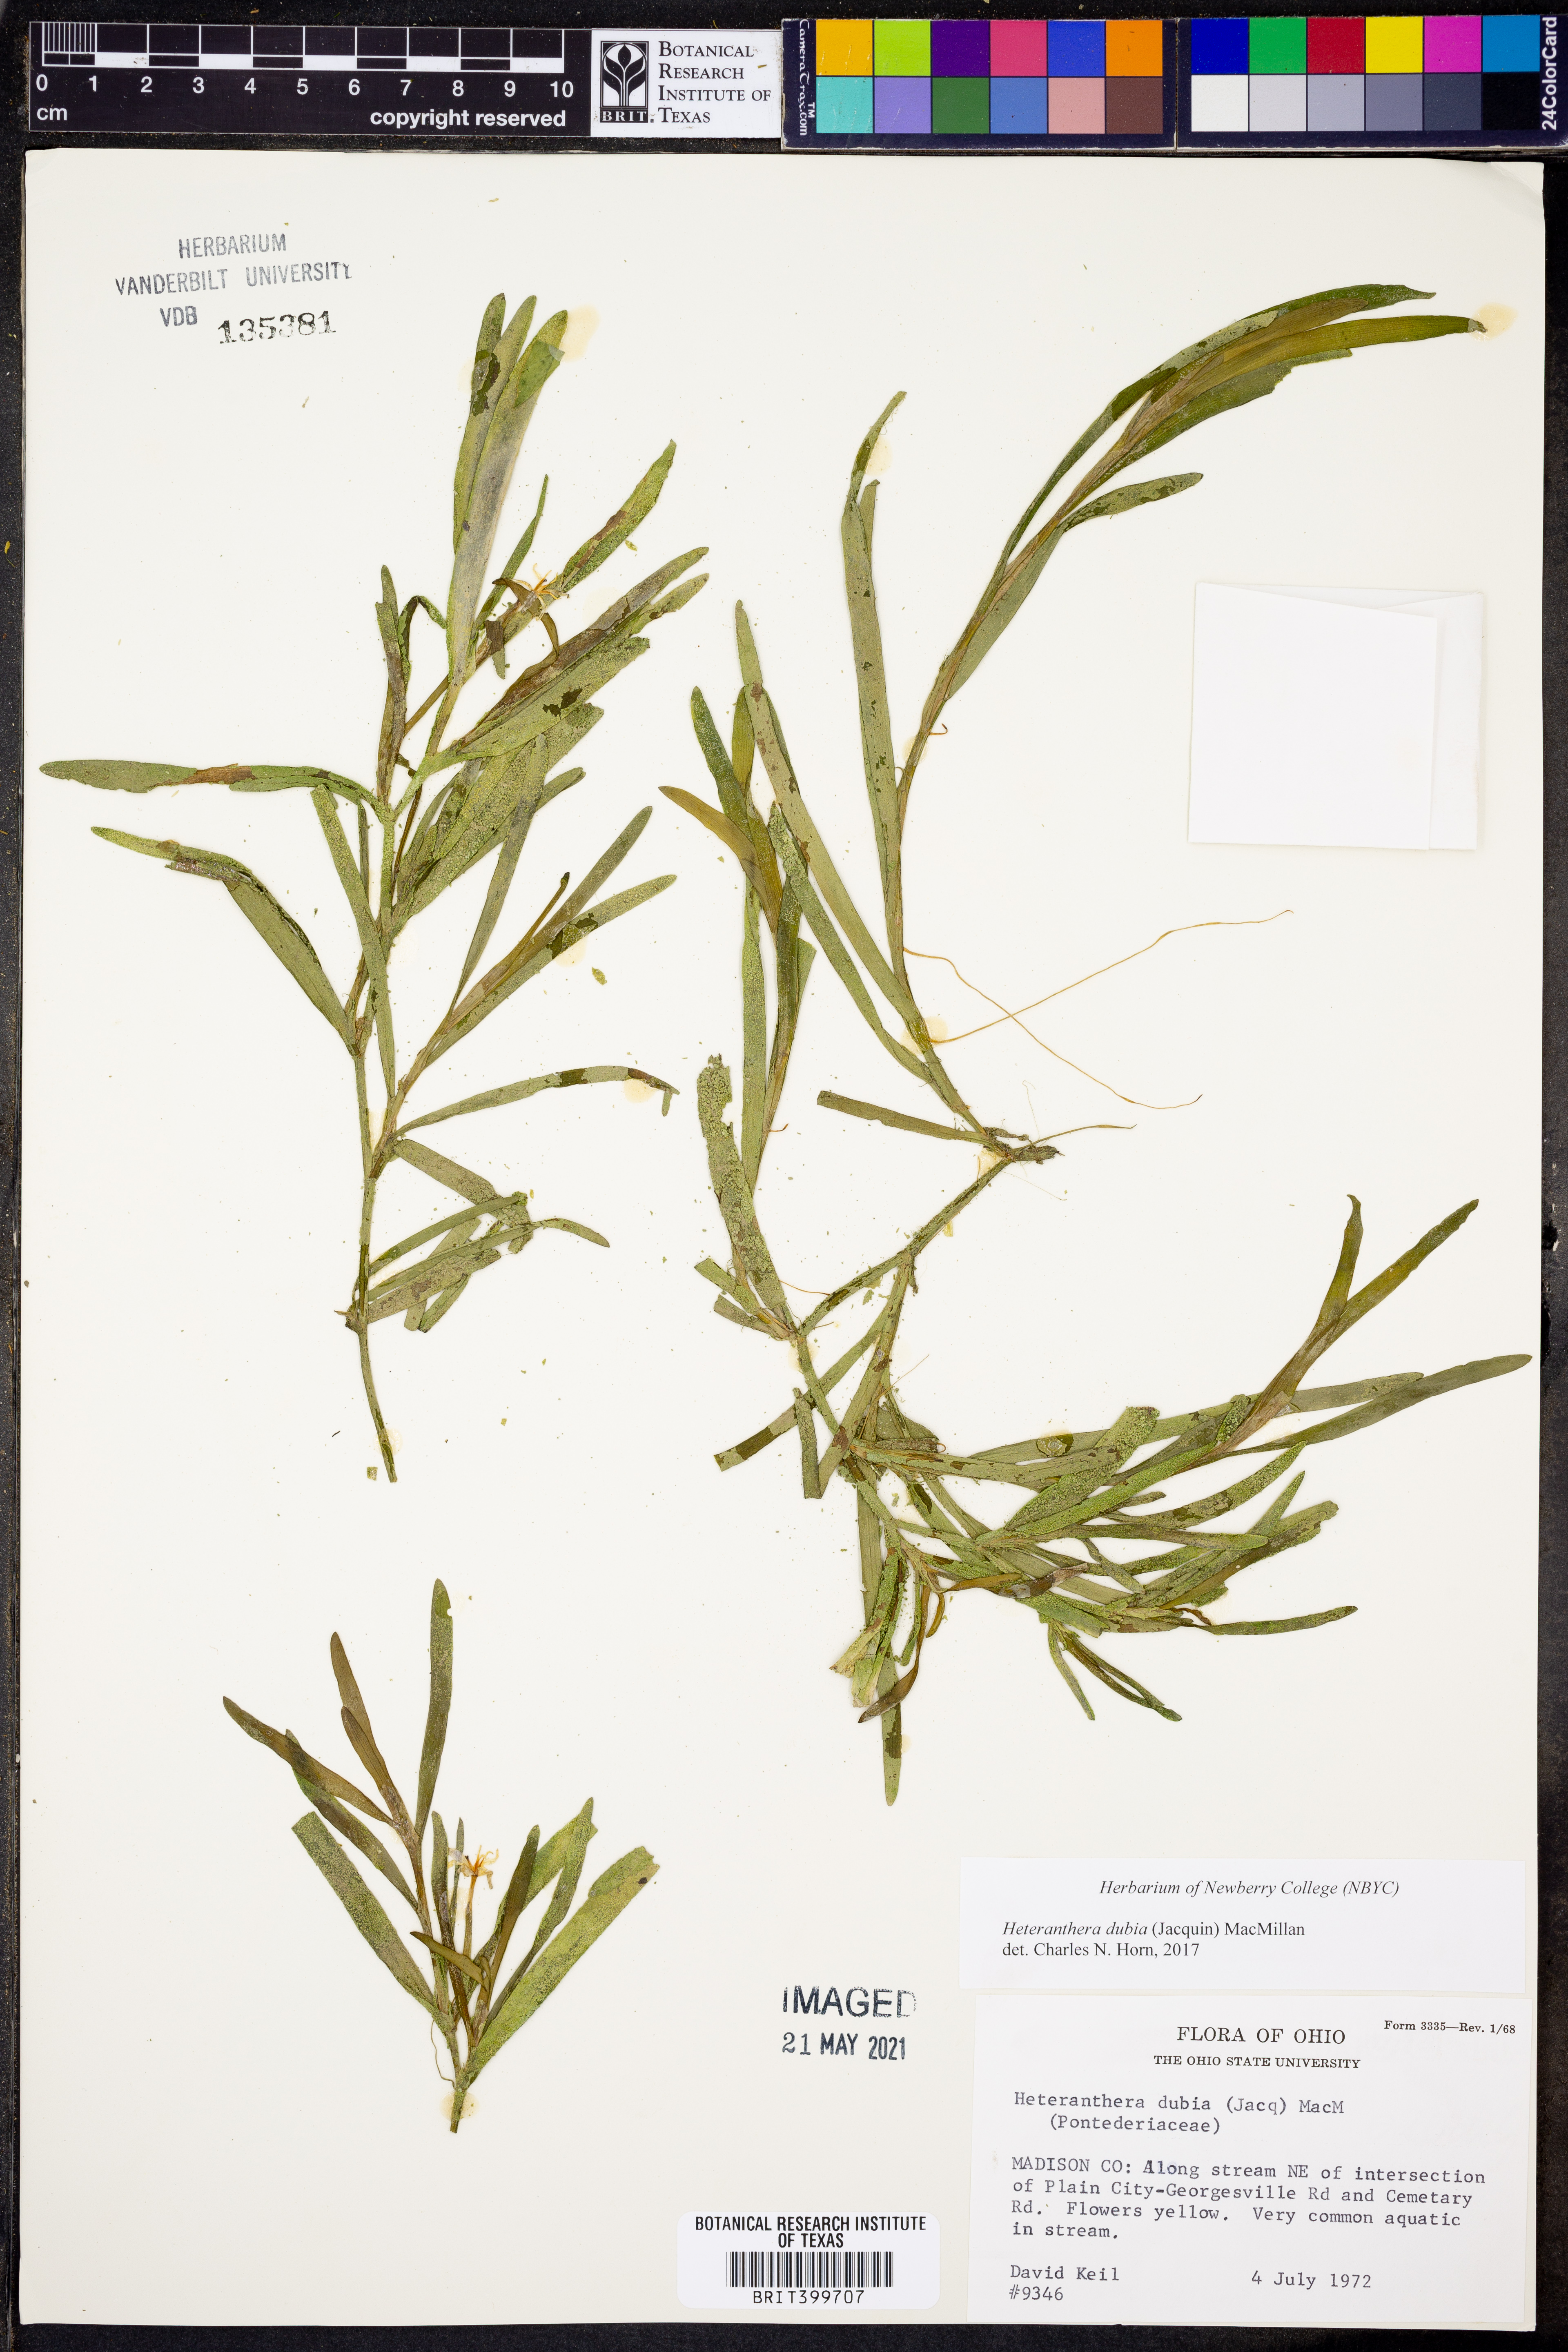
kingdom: Plantae
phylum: Tracheophyta
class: Liliopsida
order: Commelinales
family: Pontederiaceae
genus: Heteranthera
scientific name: Heteranthera dubia
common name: Grass-leaved mud plantain
